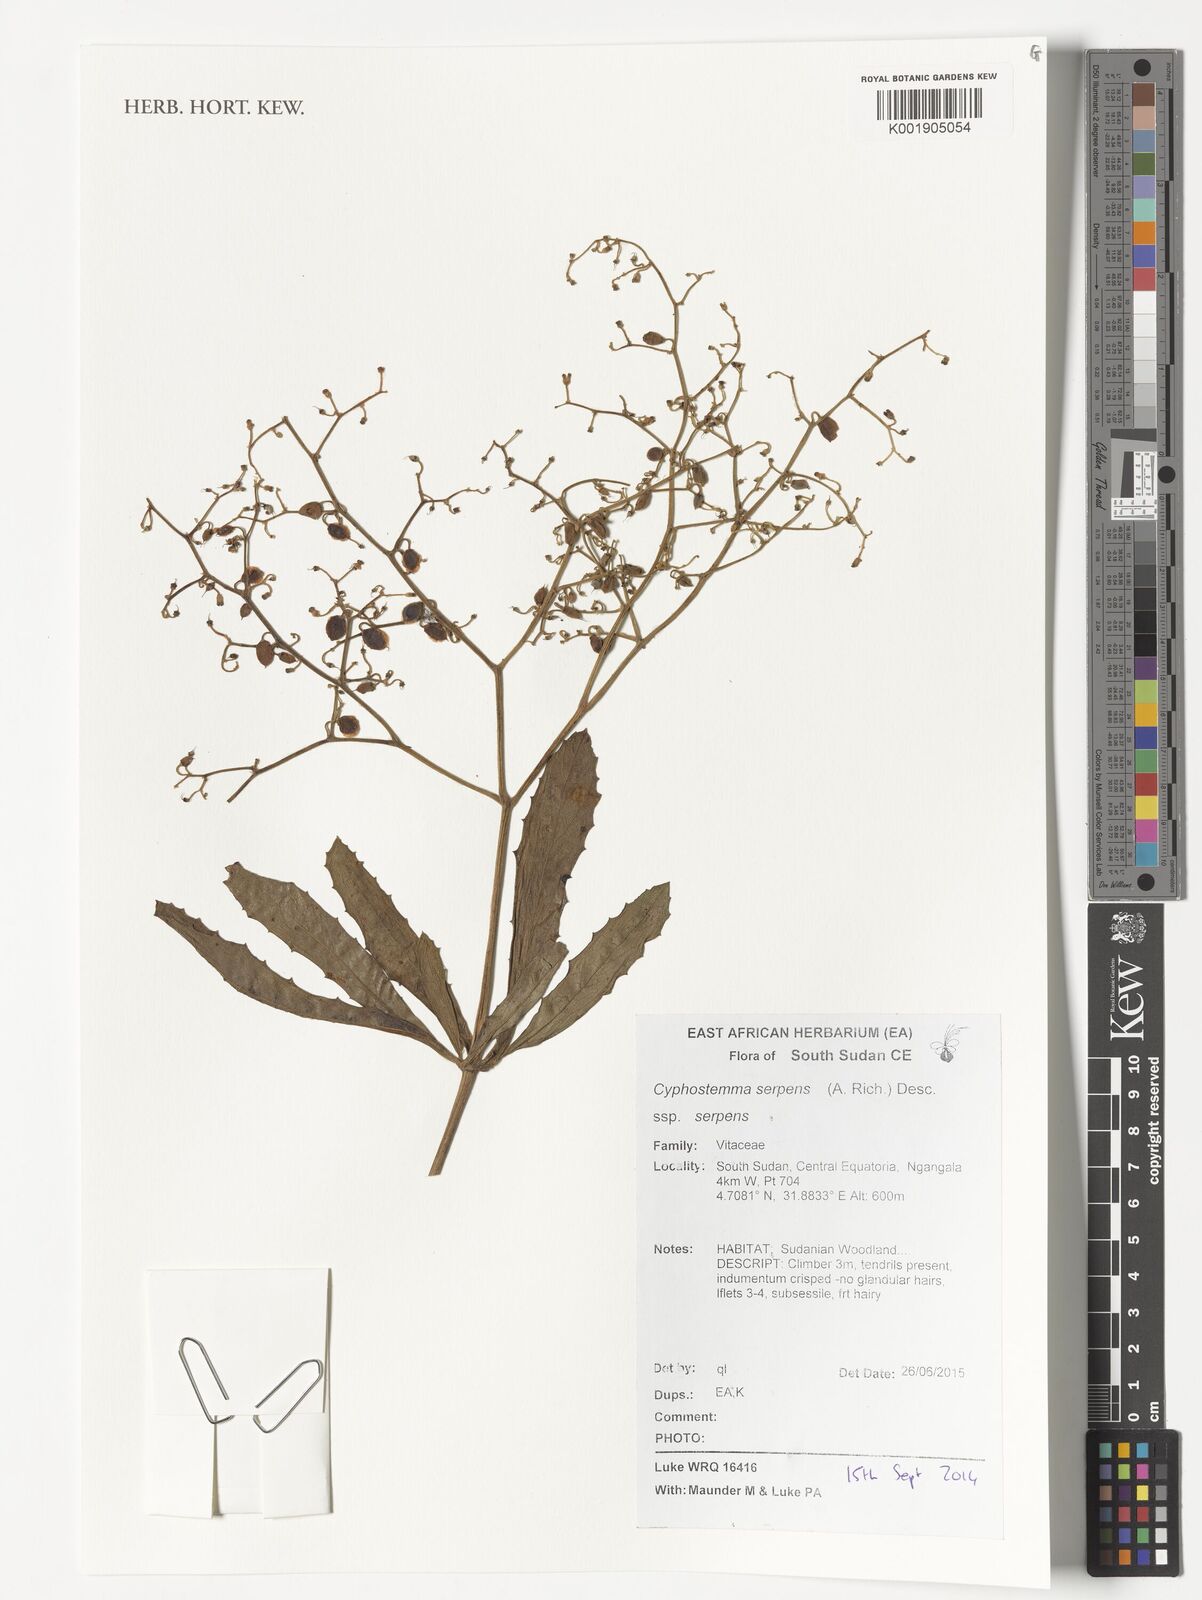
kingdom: Plantae
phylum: Tracheophyta
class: Magnoliopsida
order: Vitales
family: Vitaceae
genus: Cyphostemma
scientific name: Cyphostemma serpens
